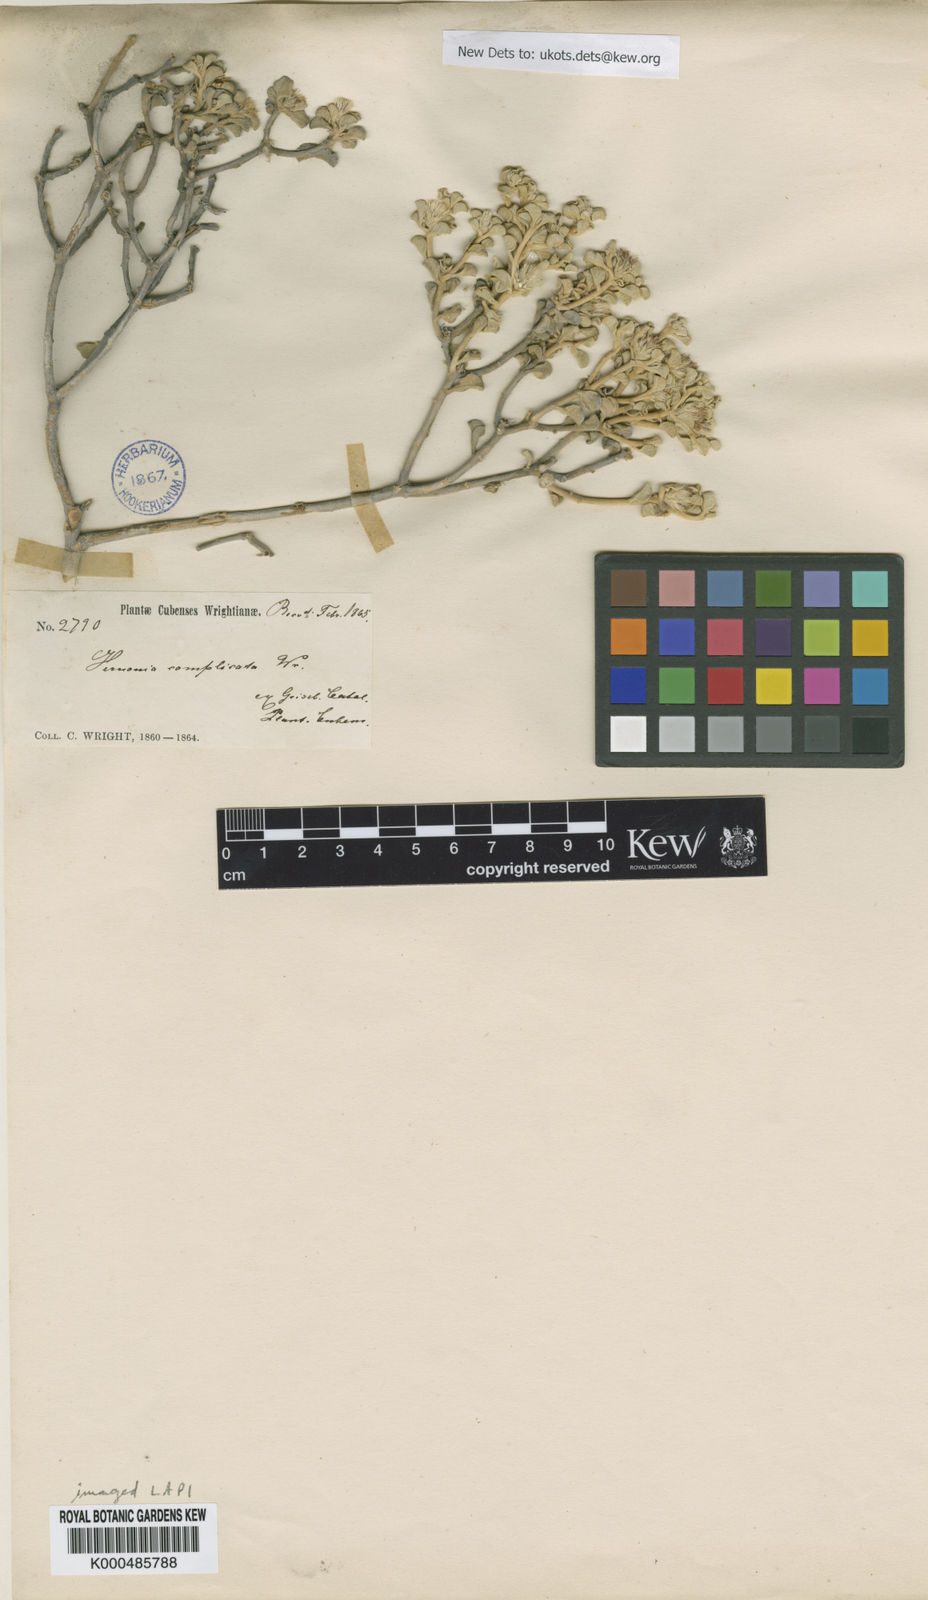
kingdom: Plantae
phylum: Tracheophyta
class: Magnoliopsida
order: Asterales
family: Asteraceae
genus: Lepidaploa
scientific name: Lepidaploa arborescens
